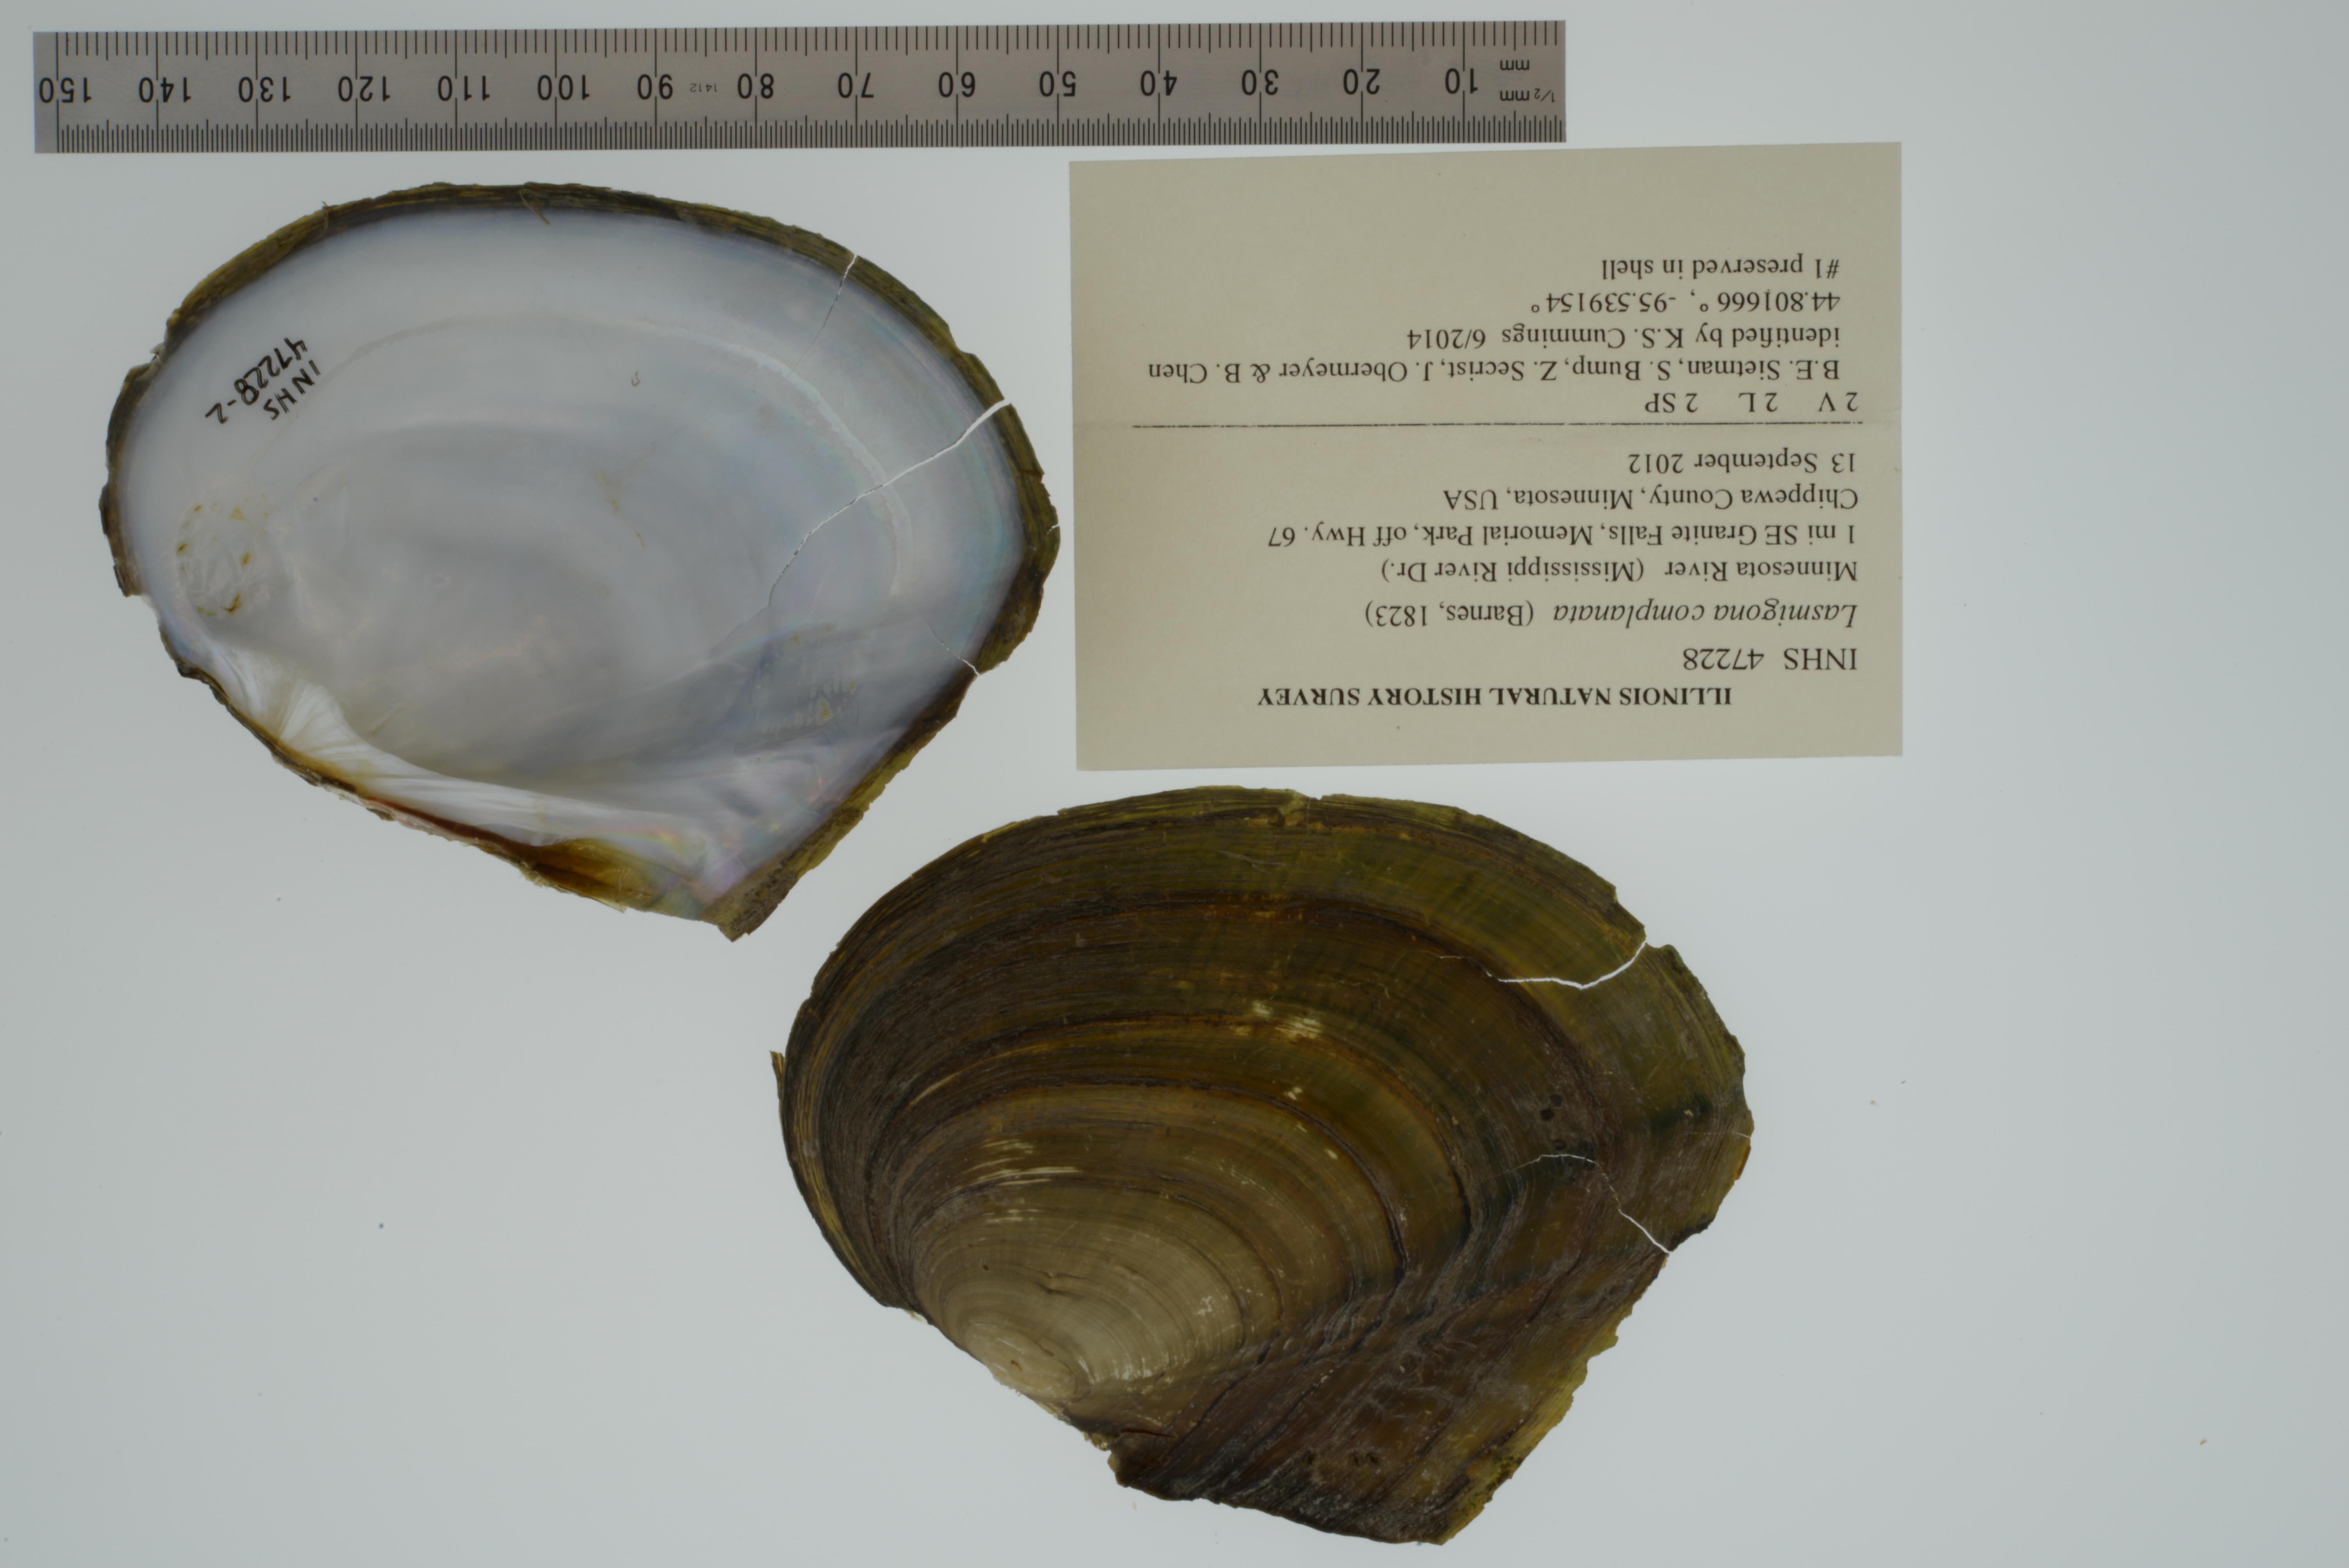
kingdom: Animalia
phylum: Mollusca
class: Bivalvia
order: Unionida
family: Unionidae
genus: Lasmigona
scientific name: Lasmigona complanata
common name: White heelsplitter
